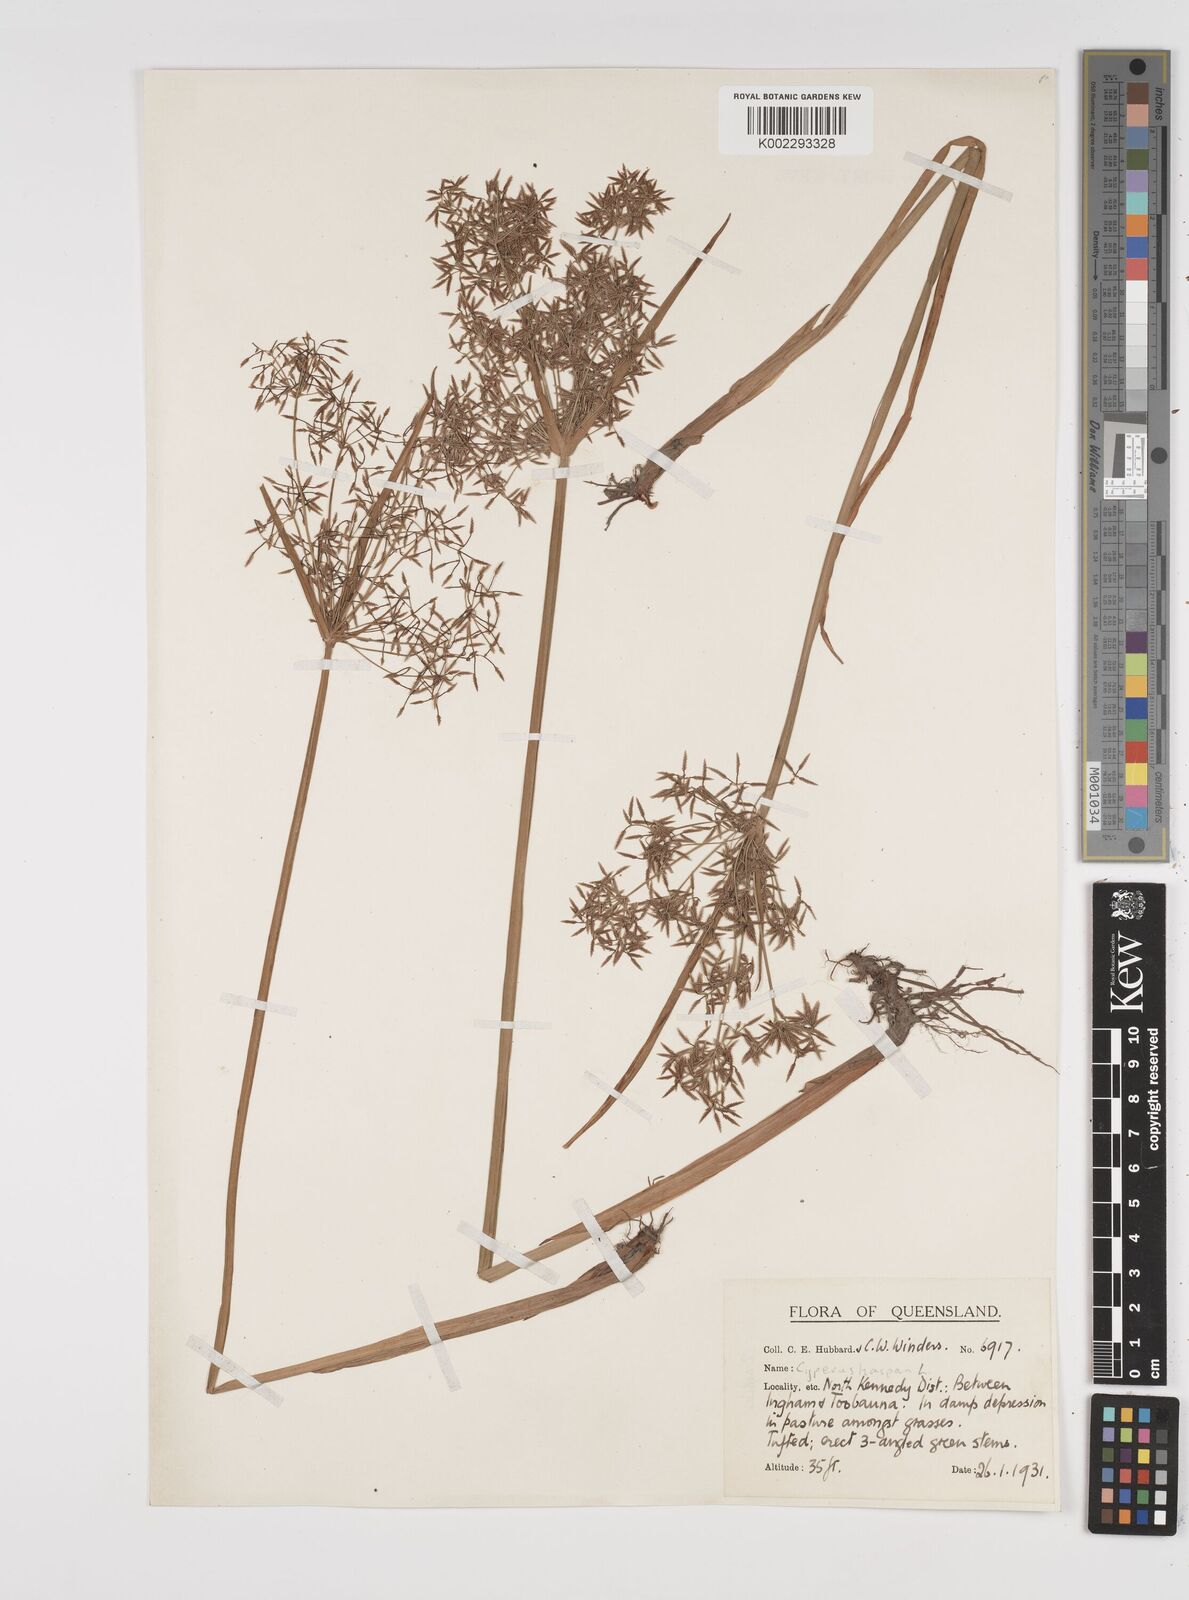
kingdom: Plantae
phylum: Tracheophyta
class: Liliopsida
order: Poales
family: Cyperaceae
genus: Cyperus
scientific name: Cyperus haspan
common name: Haspan flatsedge
